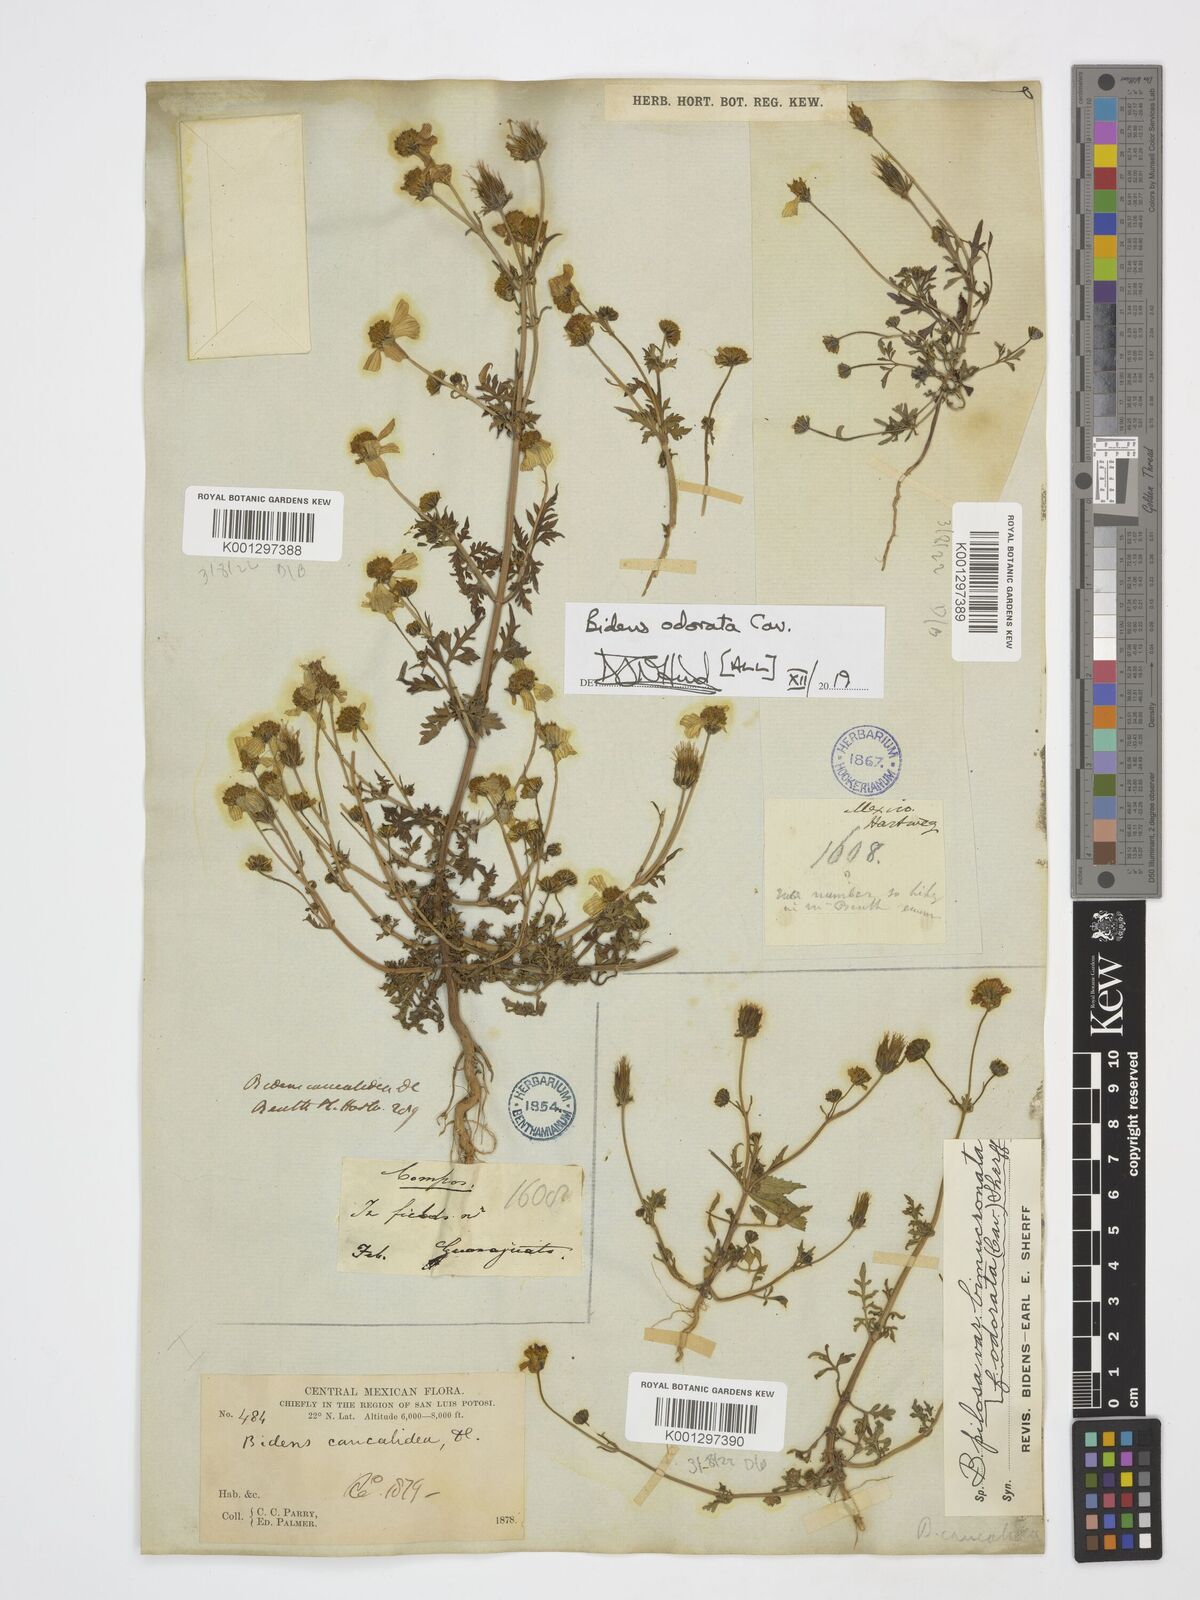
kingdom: Plantae
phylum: Tracheophyta
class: Magnoliopsida
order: Asterales
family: Asteraceae
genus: Bidens
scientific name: Bidens pilosa
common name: Black-jack
